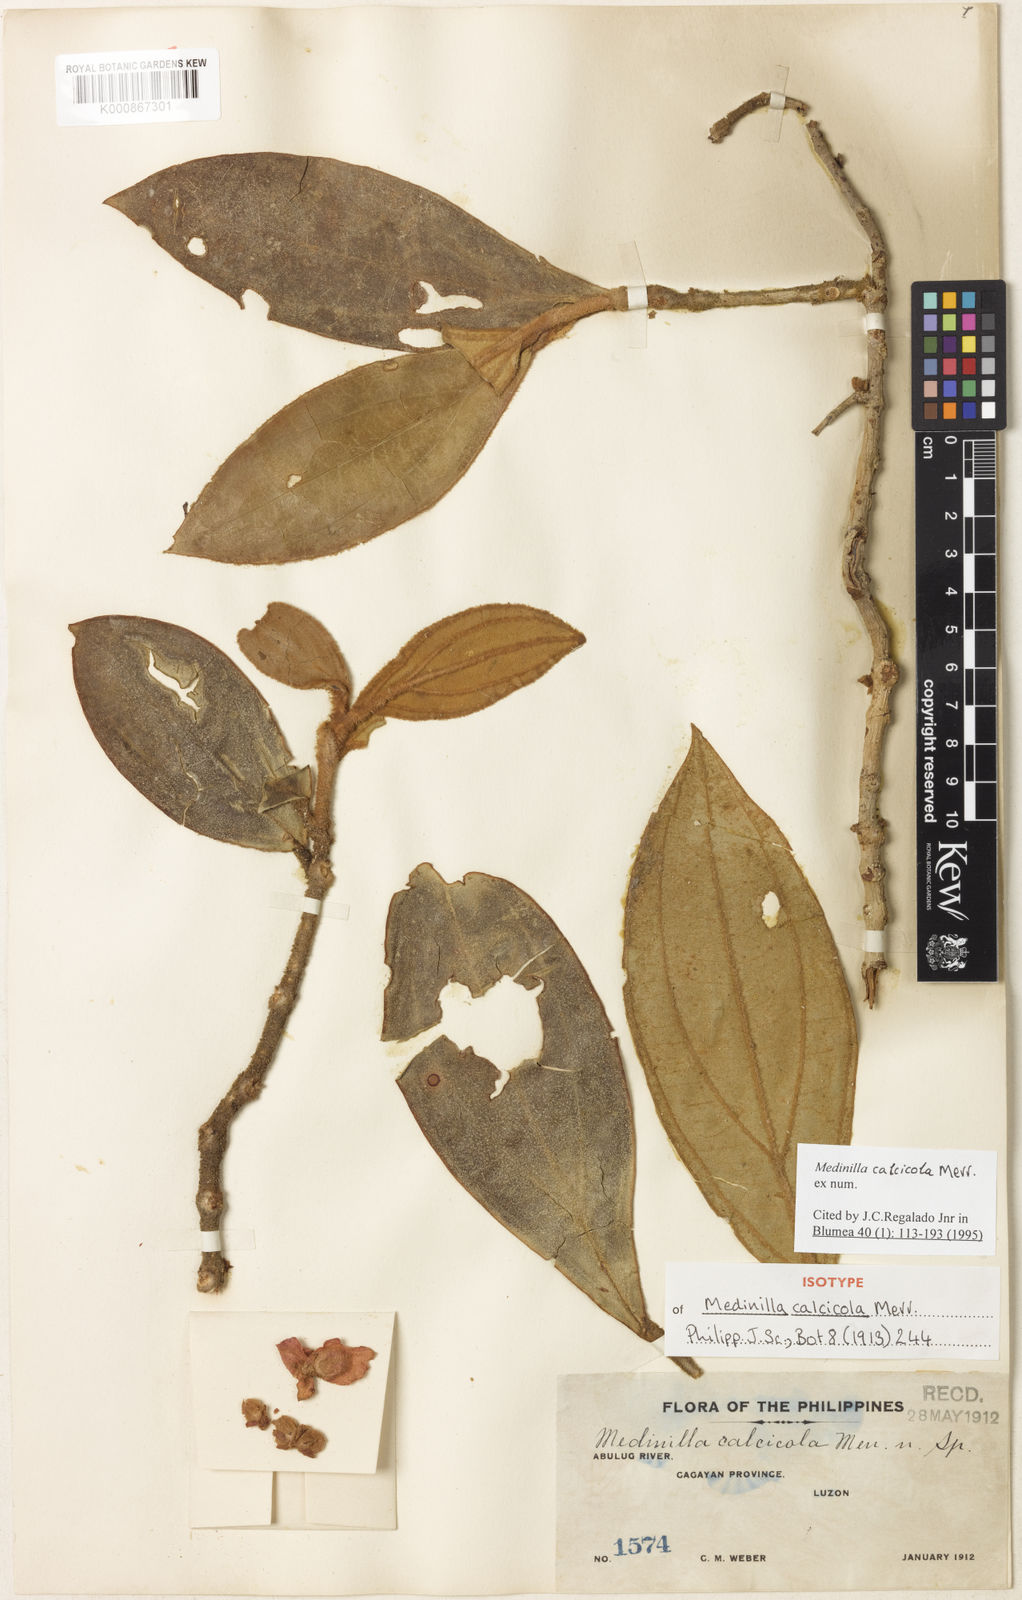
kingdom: Plantae
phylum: Tracheophyta
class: Magnoliopsida
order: Myrtales
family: Melastomataceae
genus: Medinilla
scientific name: Medinilla calcicola
